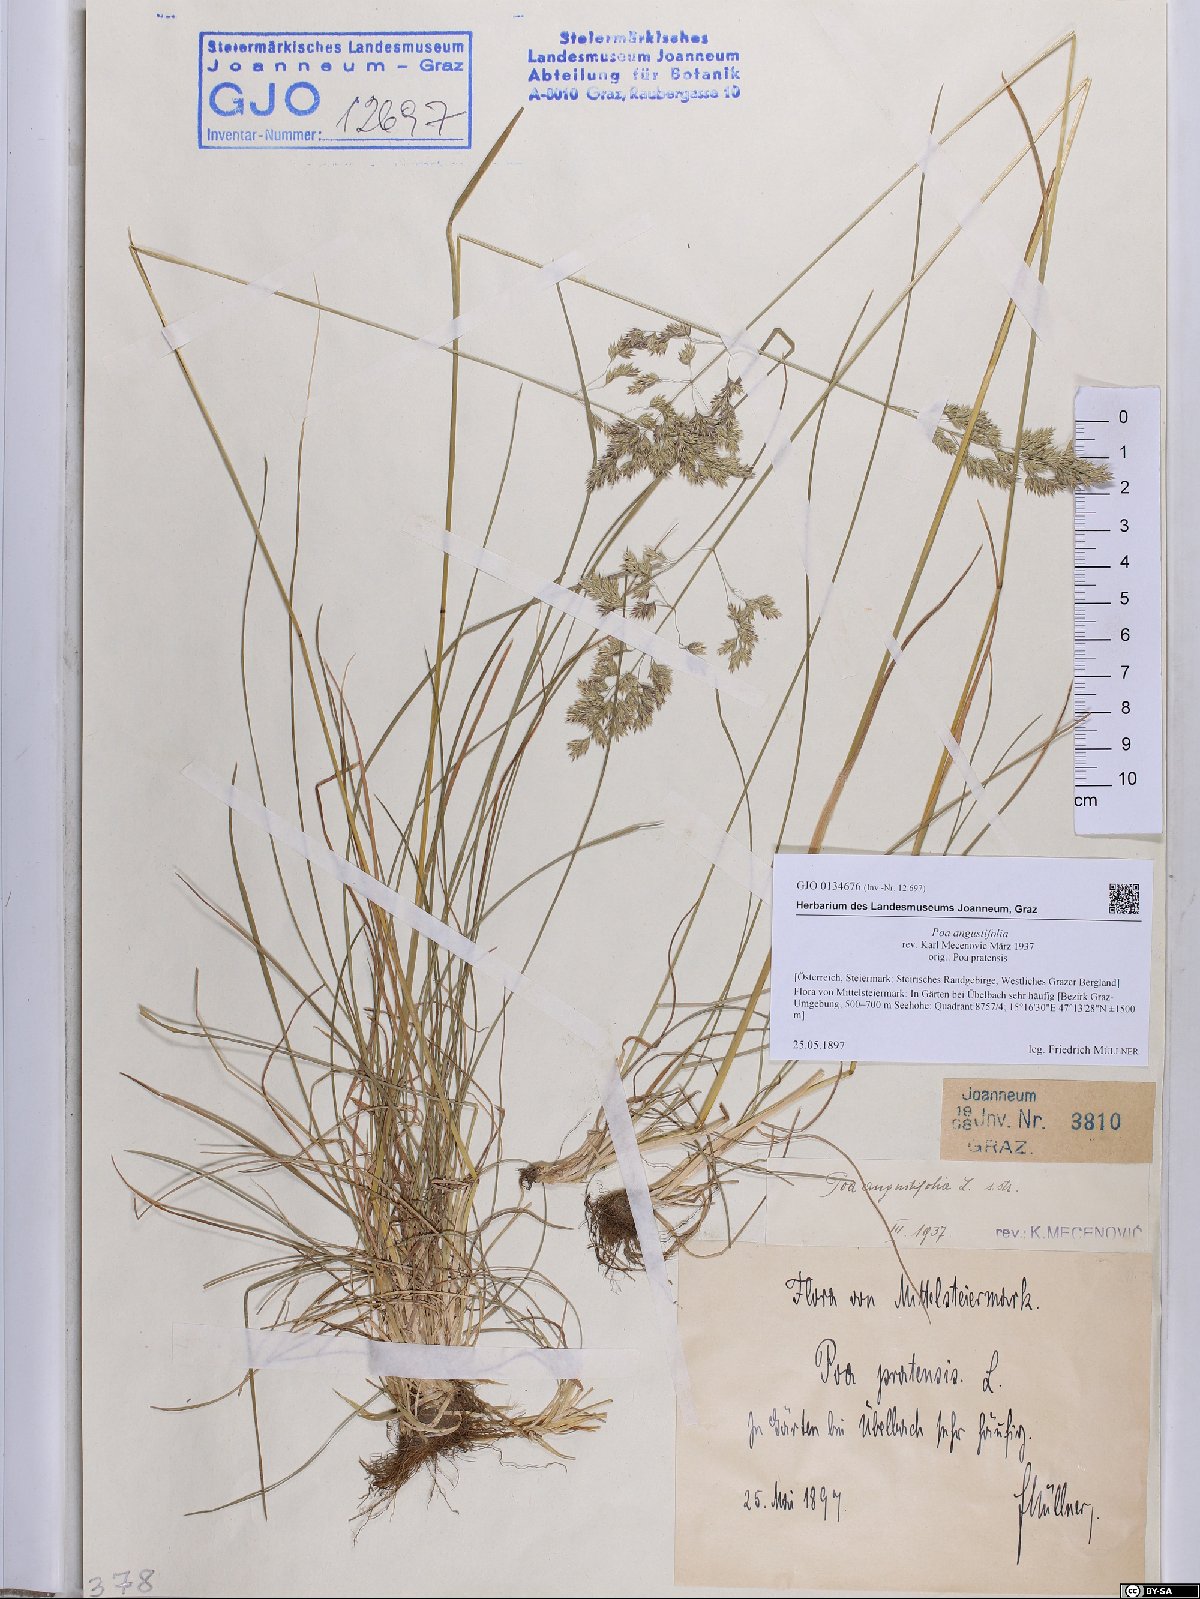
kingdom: Plantae
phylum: Tracheophyta
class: Liliopsida
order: Poales
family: Poaceae
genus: Poa
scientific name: Poa angustifolia
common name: Narrow-leaved meadow-grass
